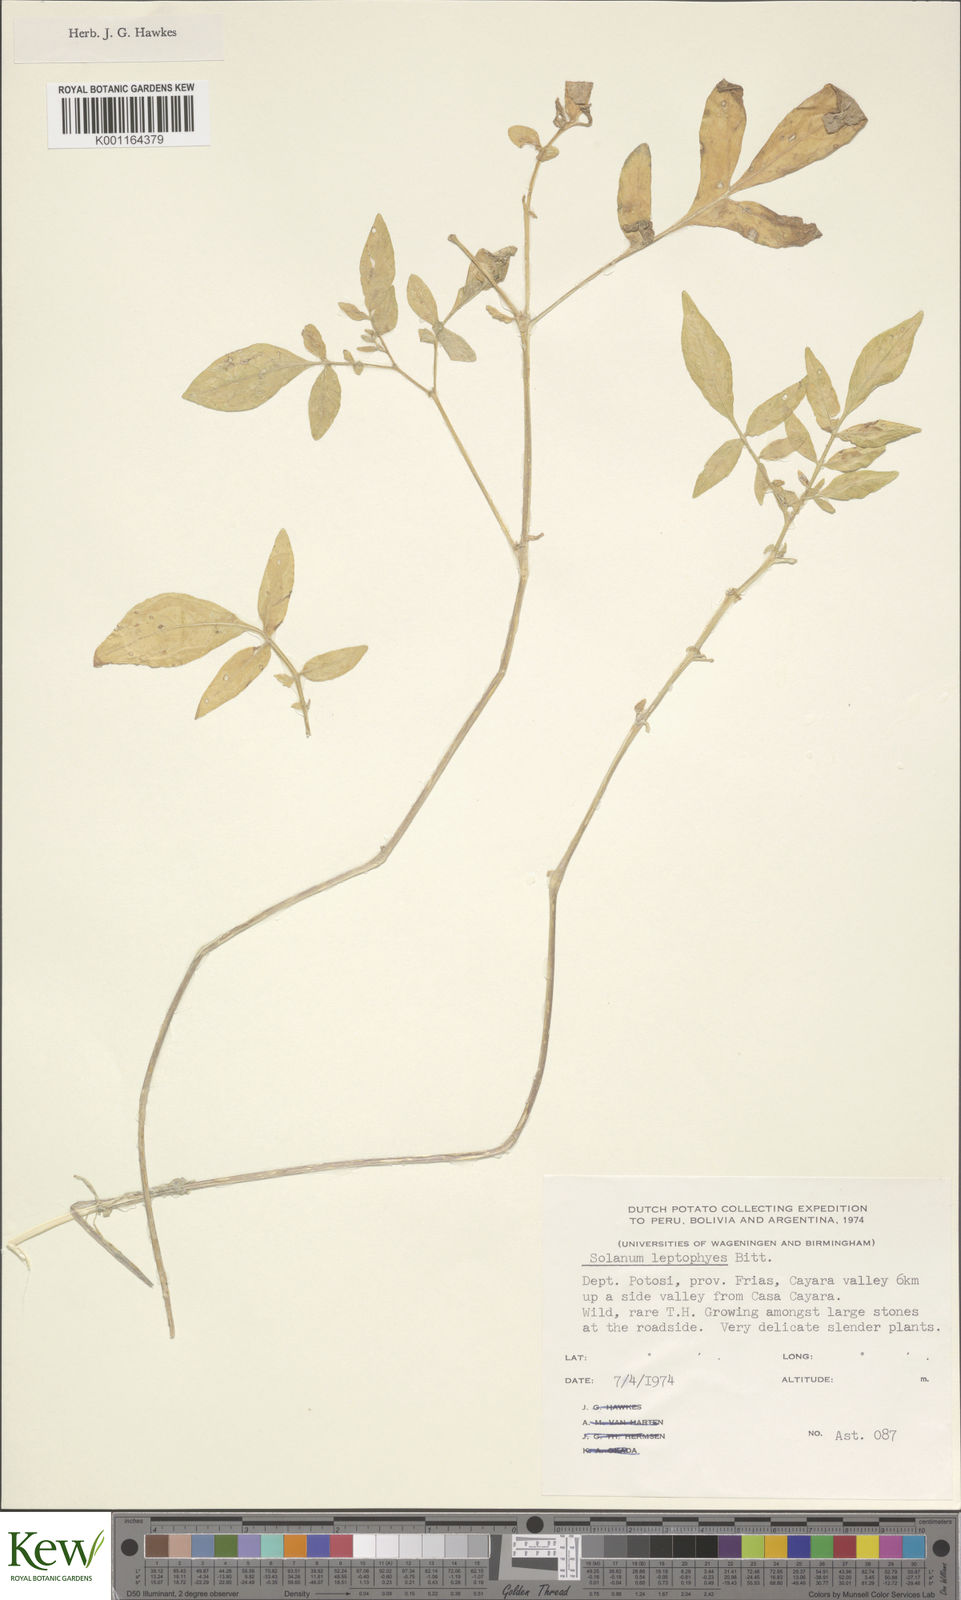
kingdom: Plantae
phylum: Tracheophyta
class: Magnoliopsida
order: Solanales
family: Solanaceae
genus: Solanum
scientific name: Solanum brevicaule
